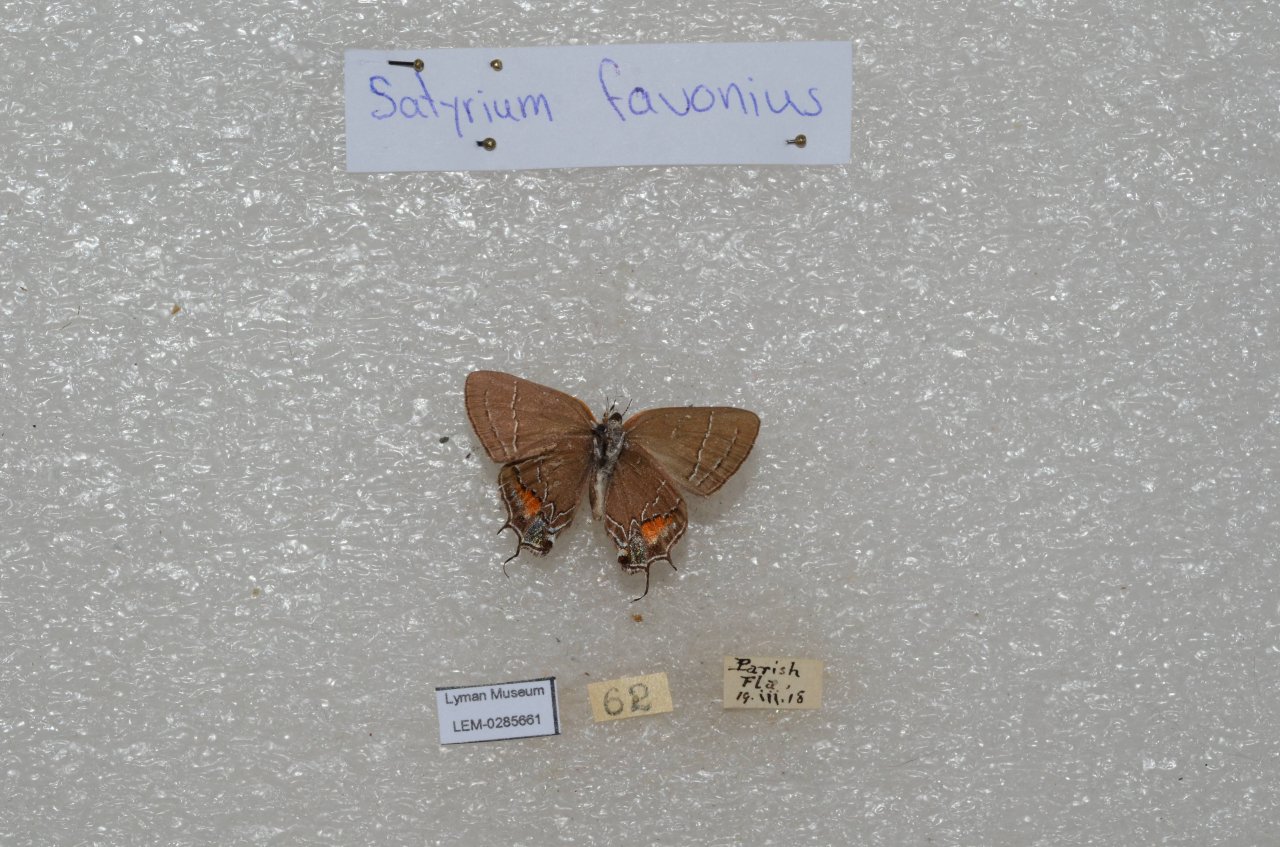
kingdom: Animalia
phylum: Arthropoda
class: Insecta
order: Lepidoptera
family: Lycaenidae
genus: Fixsenia
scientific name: Fixsenia favonius
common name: Oak Hairstreak
